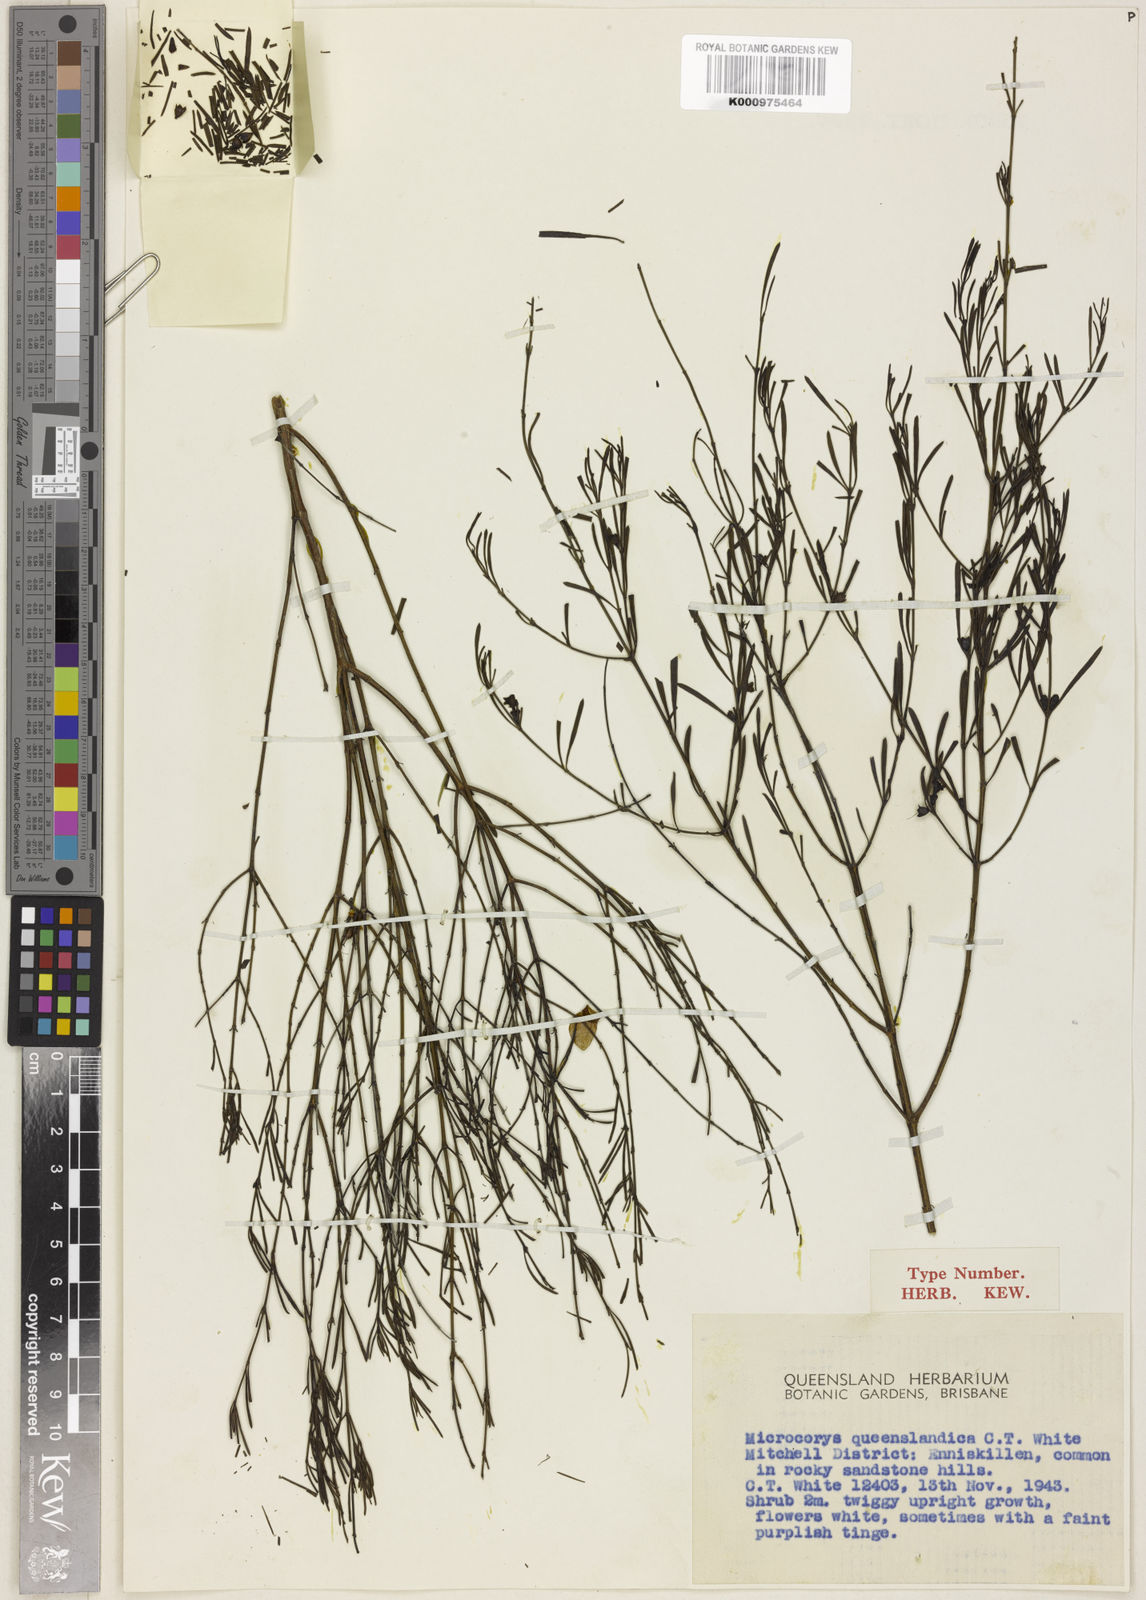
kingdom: Plantae
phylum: Tracheophyta
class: Magnoliopsida
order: Lamiales
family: Lamiaceae
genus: Microcorys
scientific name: Microcorys queenslandica
